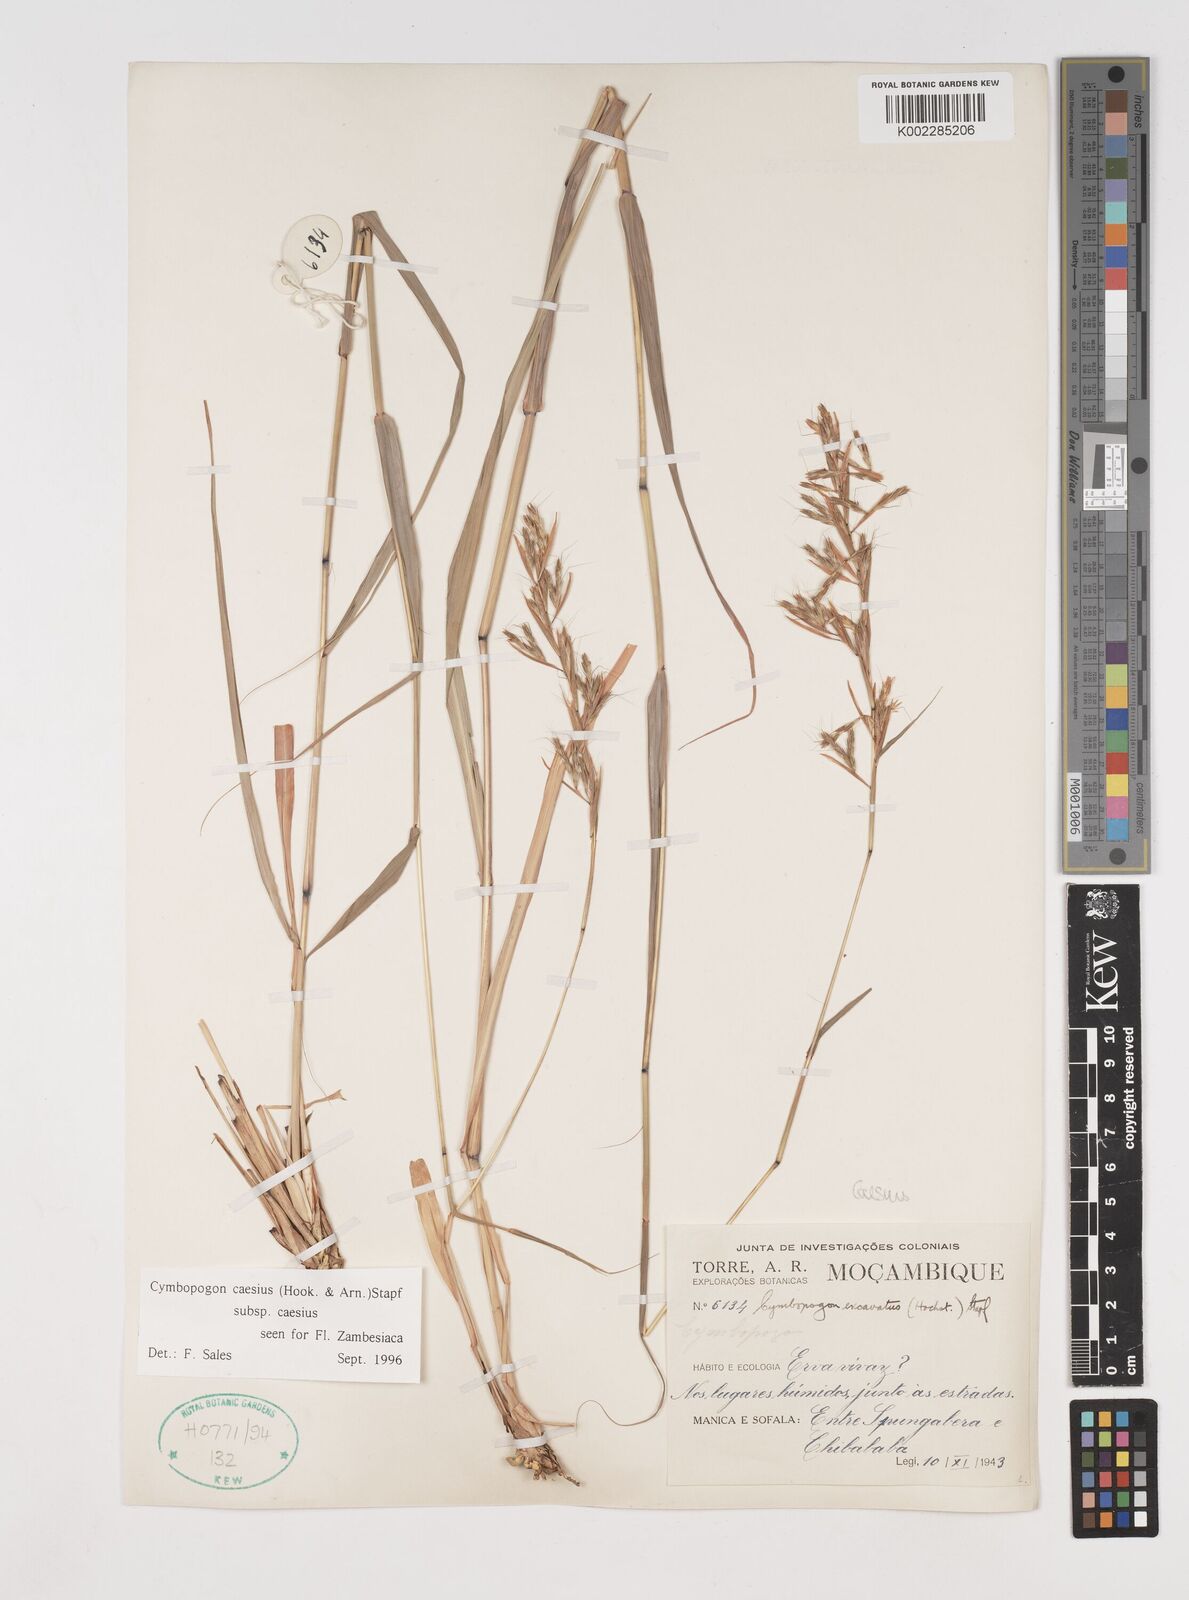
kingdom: Plantae
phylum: Tracheophyta
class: Liliopsida
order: Poales
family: Poaceae
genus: Cymbopogon
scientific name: Cymbopogon caesius
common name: Kachi grass
